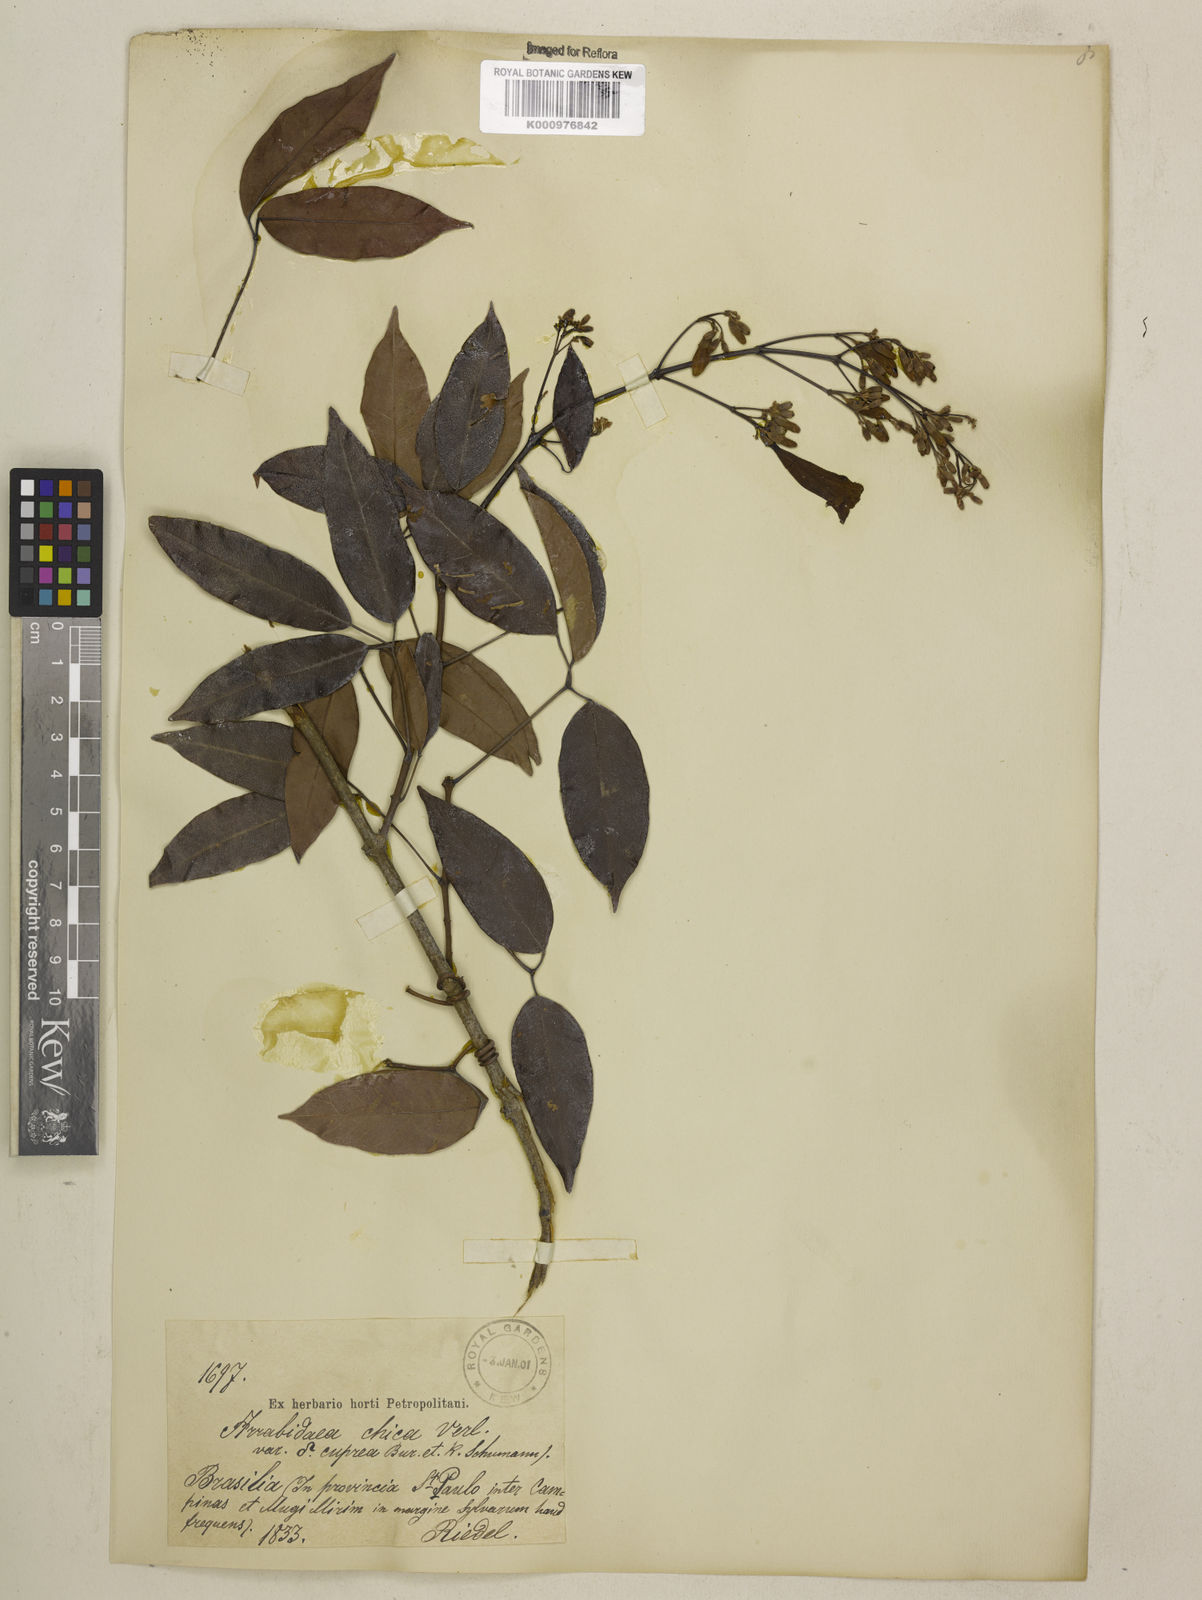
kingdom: Plantae
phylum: Tracheophyta
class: Magnoliopsida
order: Lamiales
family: Bignoniaceae
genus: Fridericia
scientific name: Fridericia chica
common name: Cricketvine
